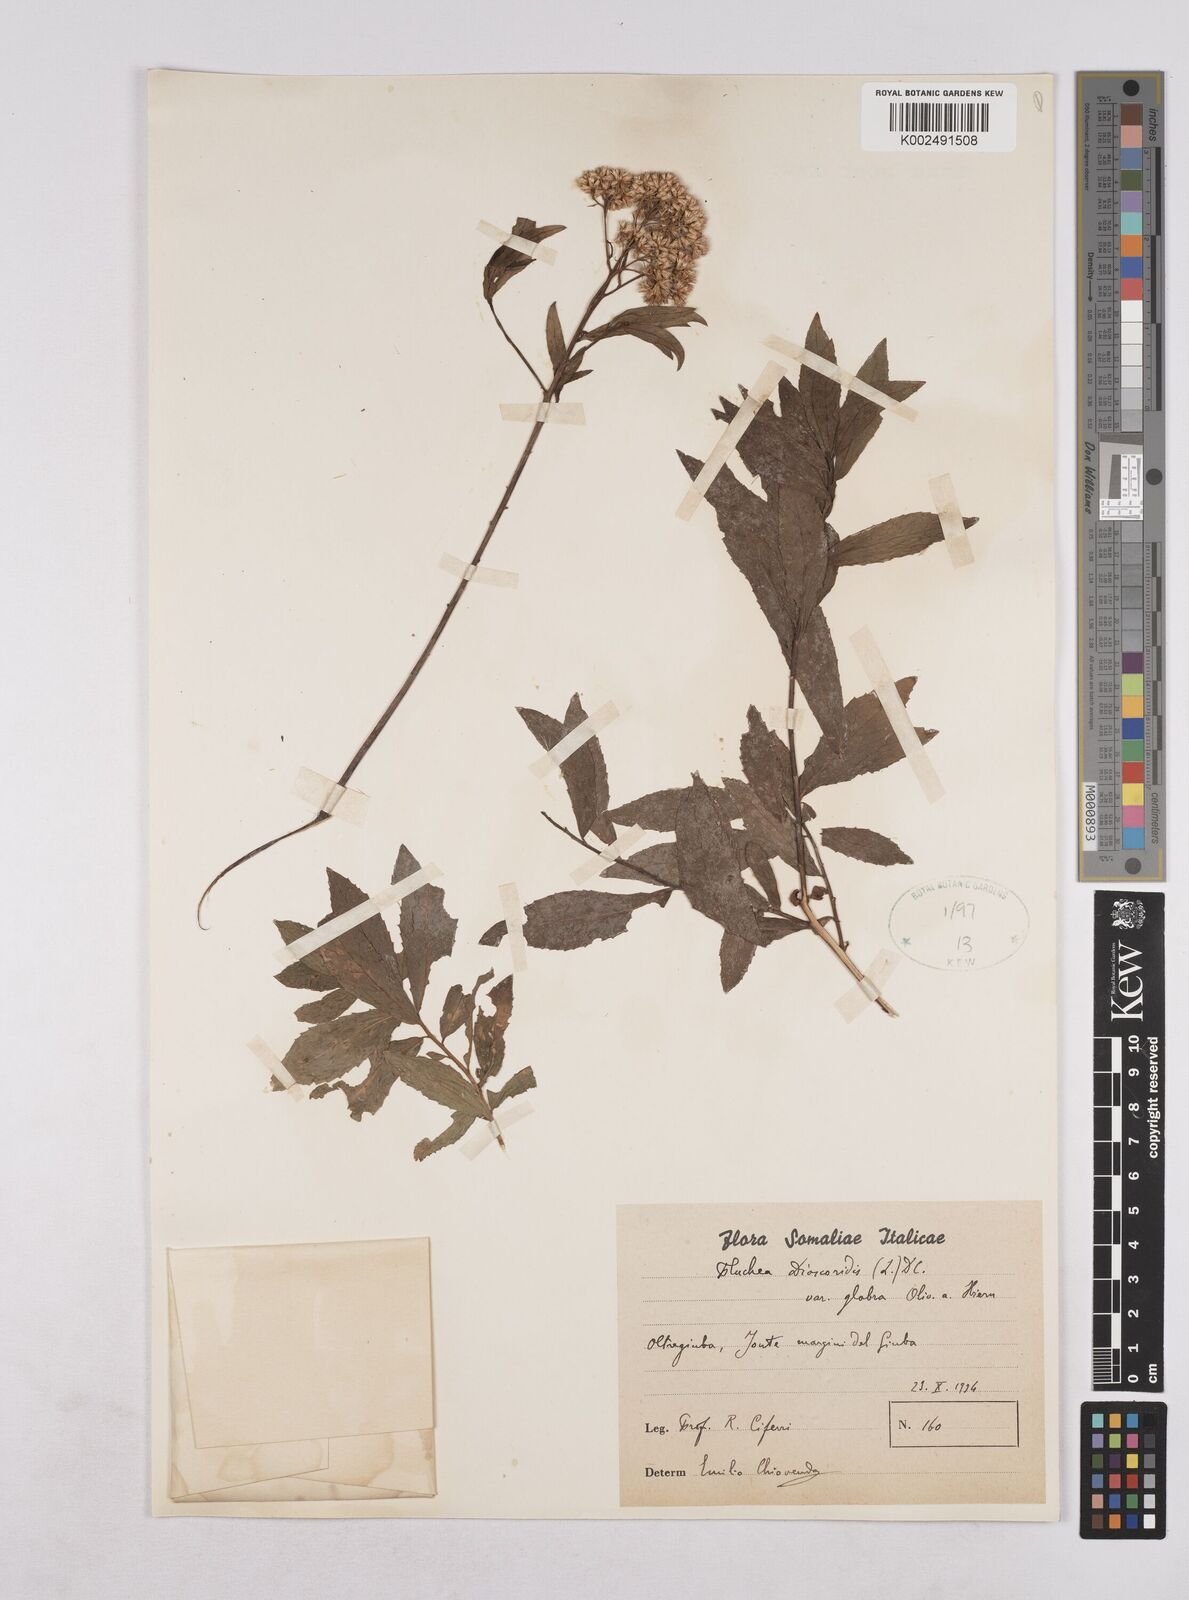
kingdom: Plantae
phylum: Tracheophyta
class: Magnoliopsida
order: Asterales
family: Asteraceae
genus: Pluchea
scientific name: Pluchea dioscoridis
